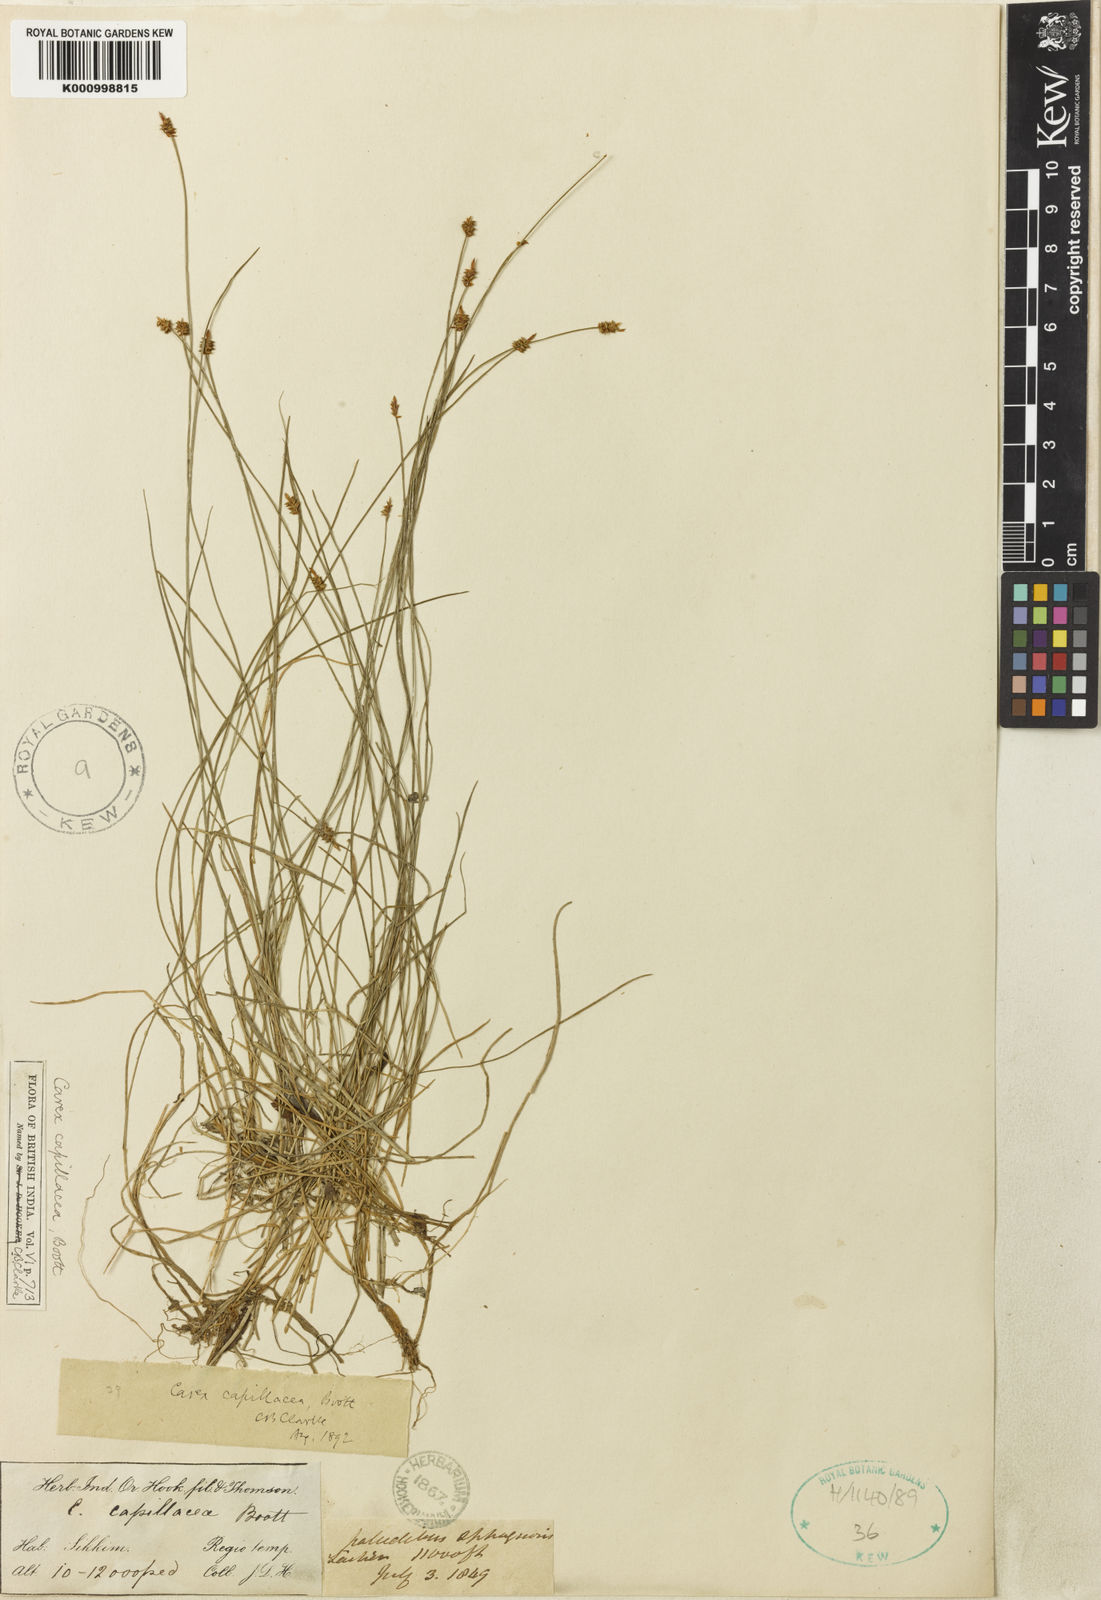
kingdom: Plantae
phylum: Tracheophyta
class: Liliopsida
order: Poales
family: Cyperaceae
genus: Carex
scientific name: Carex
